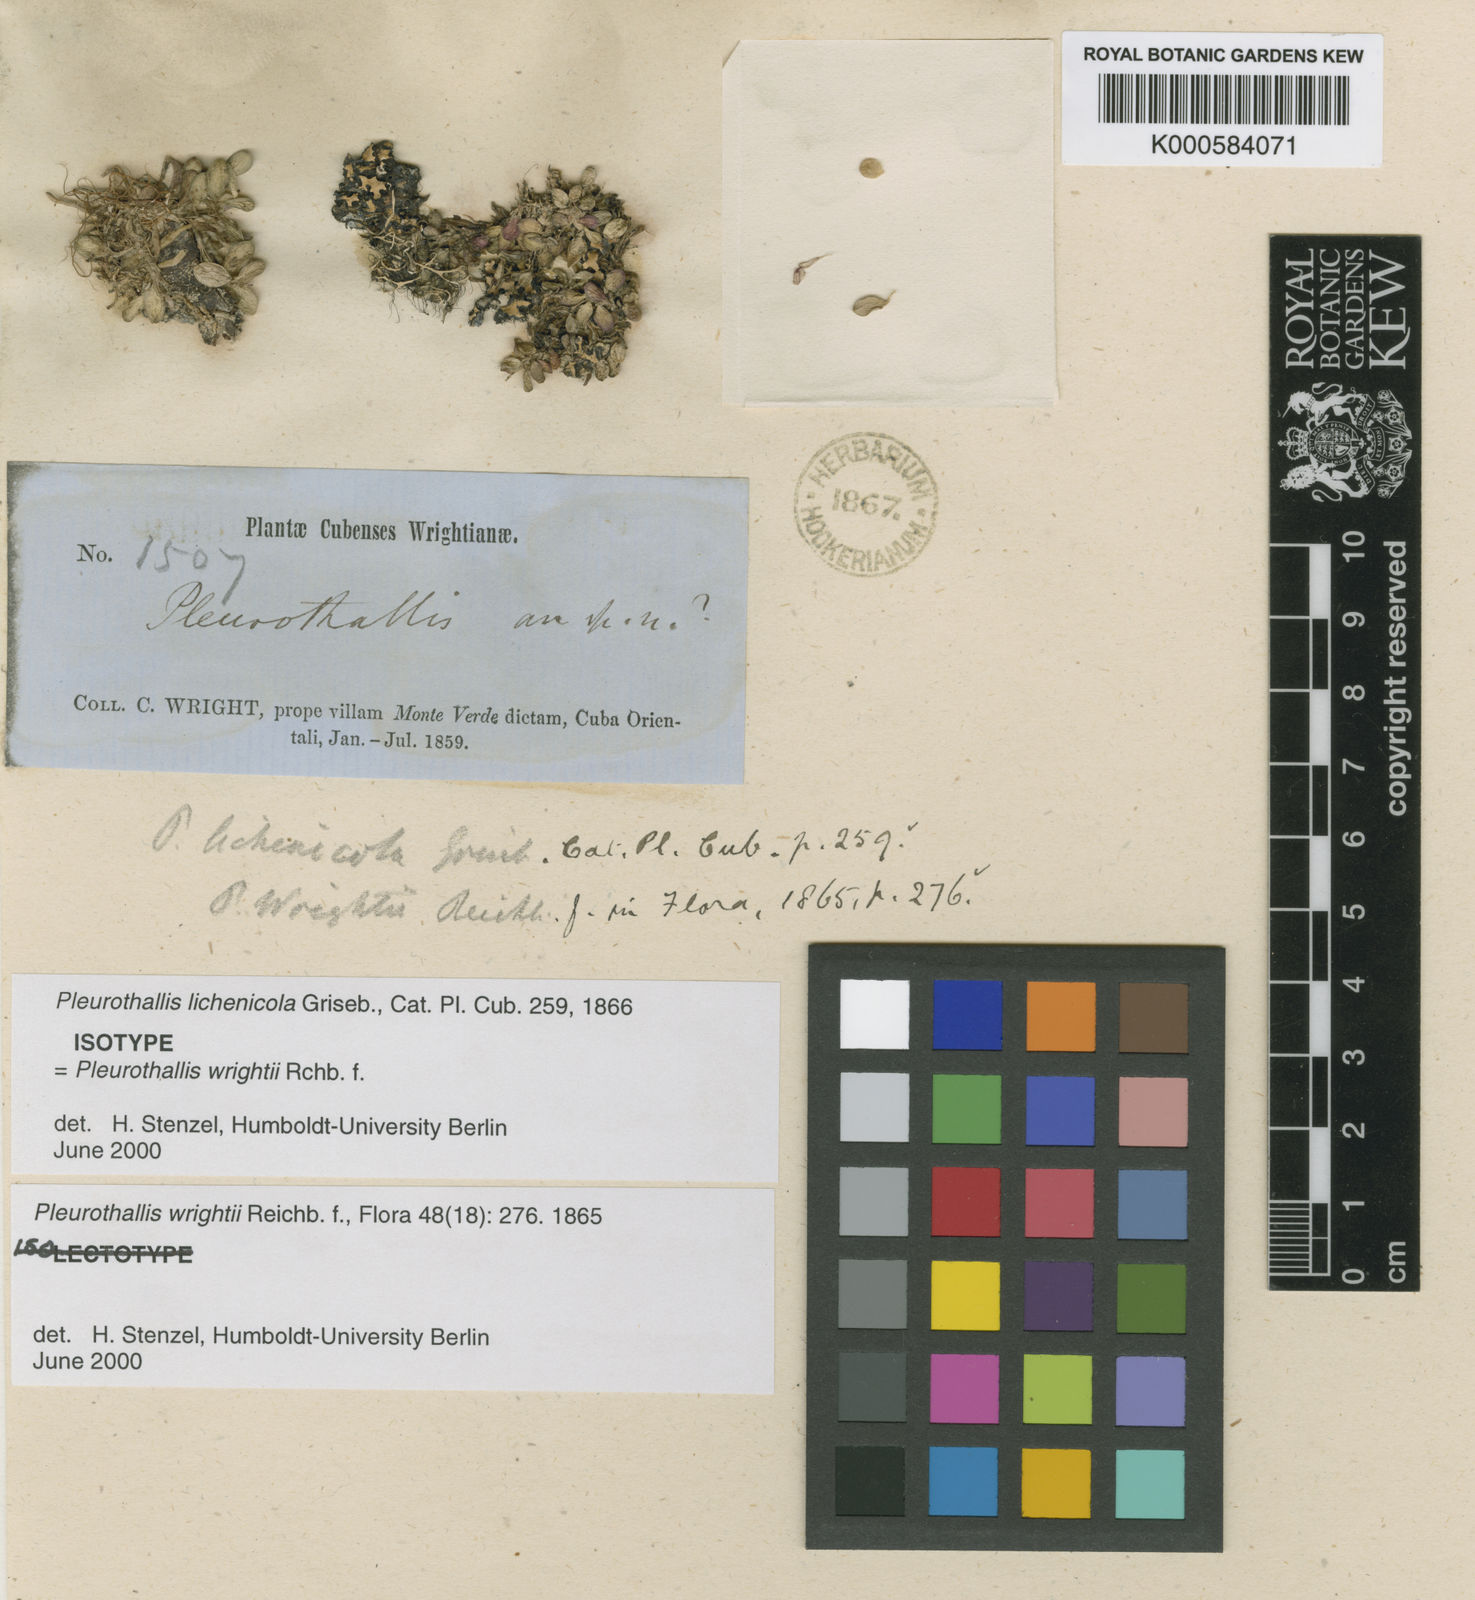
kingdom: Plantae
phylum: Tracheophyta
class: Liliopsida
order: Asparagales
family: Orchidaceae
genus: Specklinia
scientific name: Specklinia wrightii
